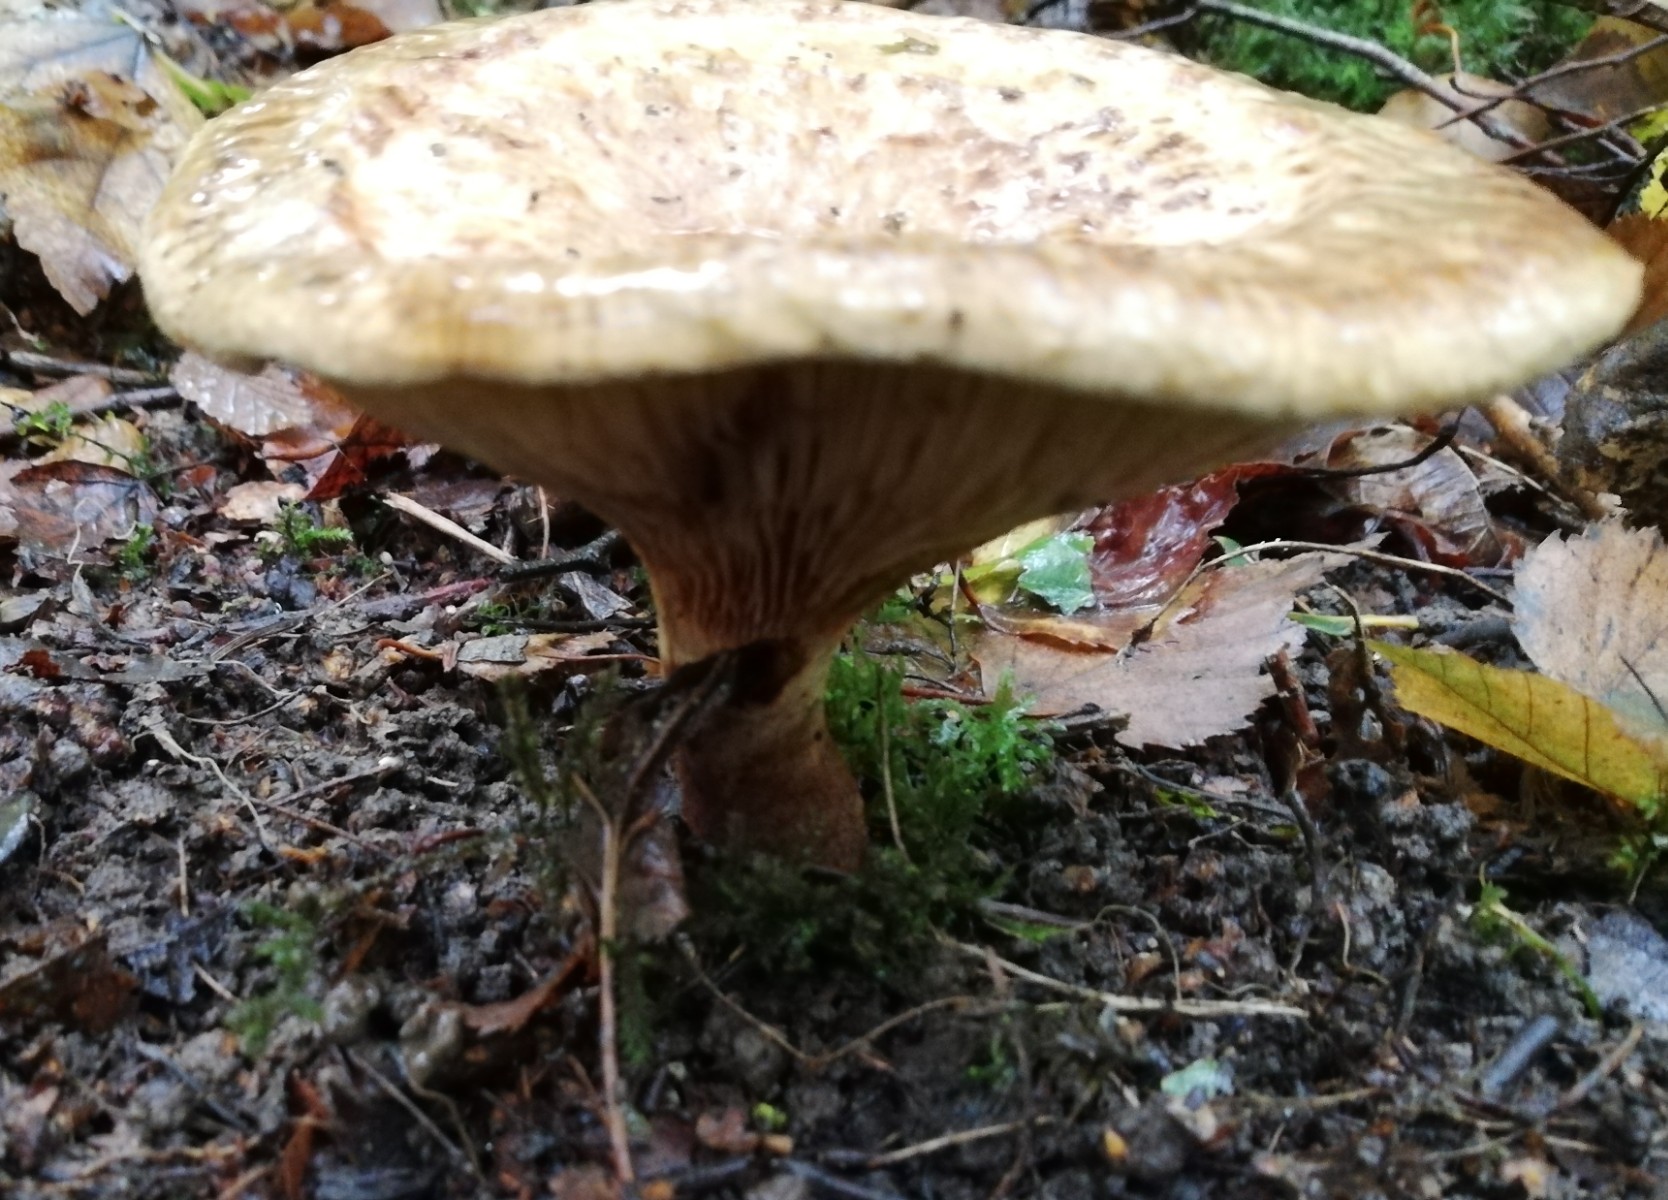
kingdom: Fungi
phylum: Basidiomycota
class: Agaricomycetes
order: Boletales
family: Paxillaceae
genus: Paxillus
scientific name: Paxillus involutus
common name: almindelig netbladhat
